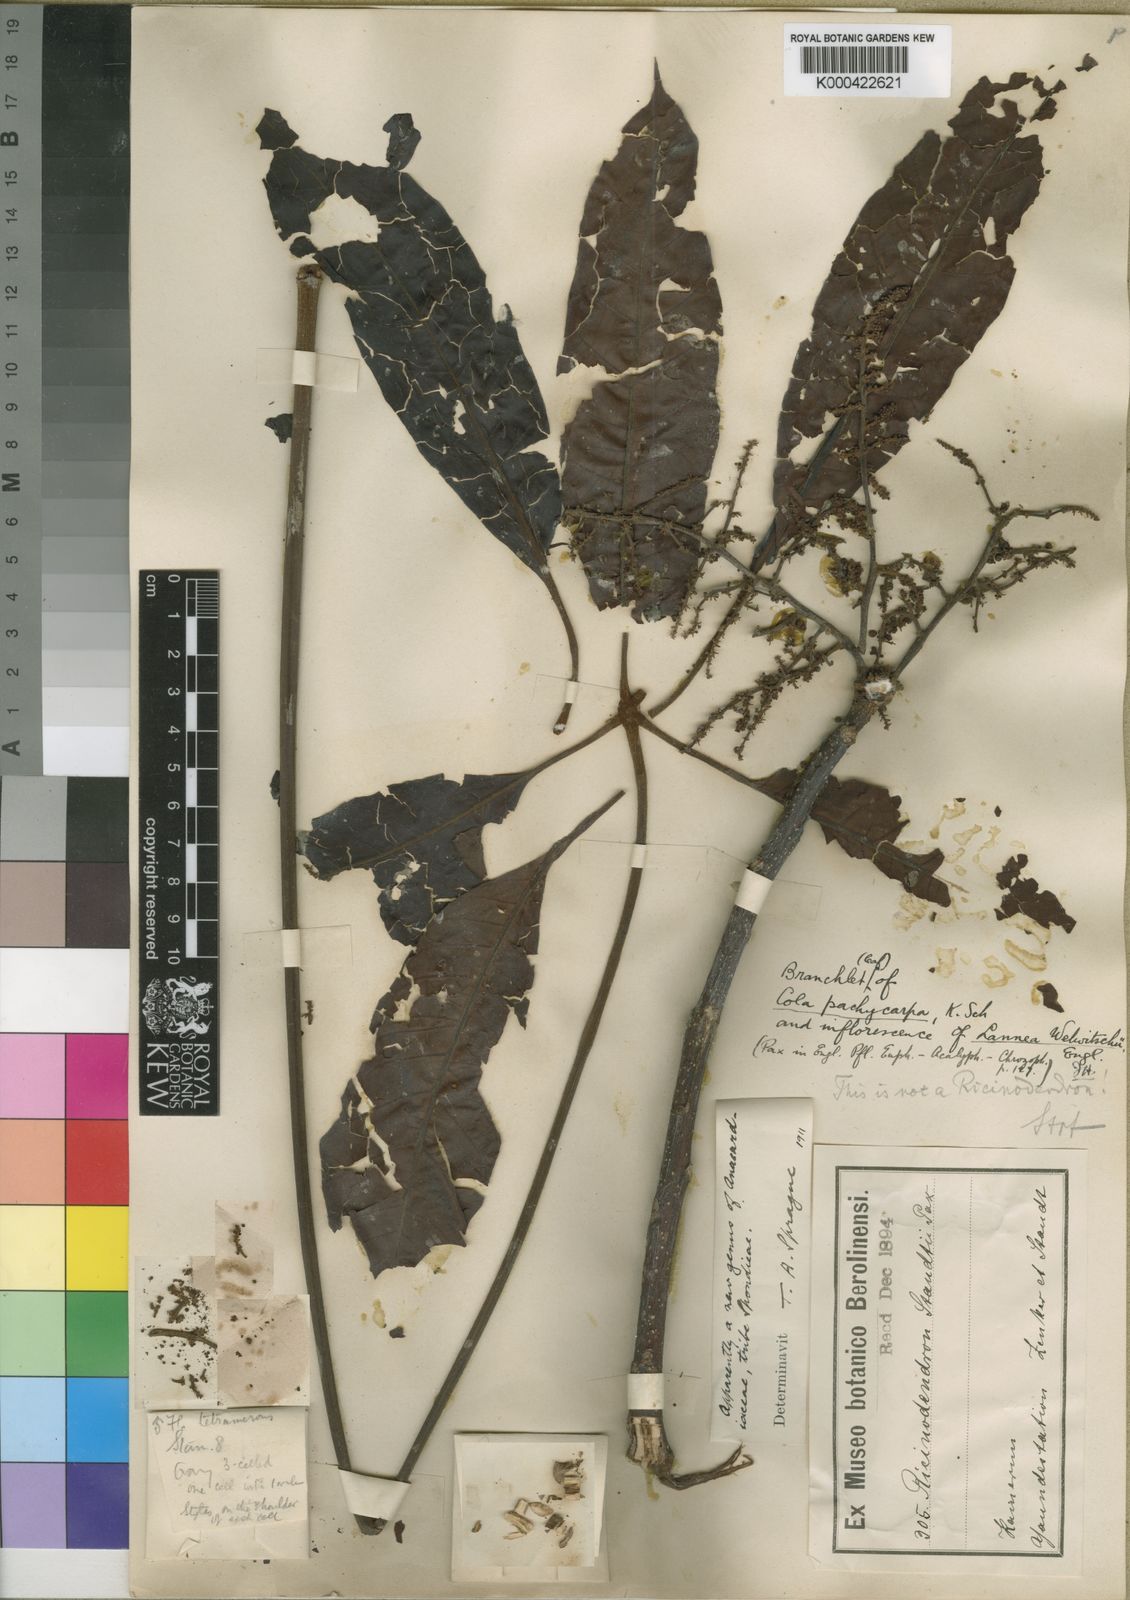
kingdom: Plantae
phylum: Tracheophyta
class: Magnoliopsida
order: Sapindales
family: Anacardiaceae
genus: Lannea
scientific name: Lannea welwitschii
